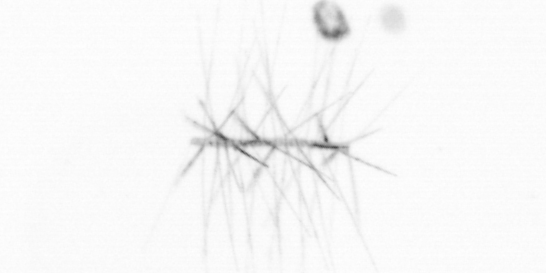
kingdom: Chromista
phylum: Ochrophyta
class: Bacillariophyceae
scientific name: Bacillariophyceae
